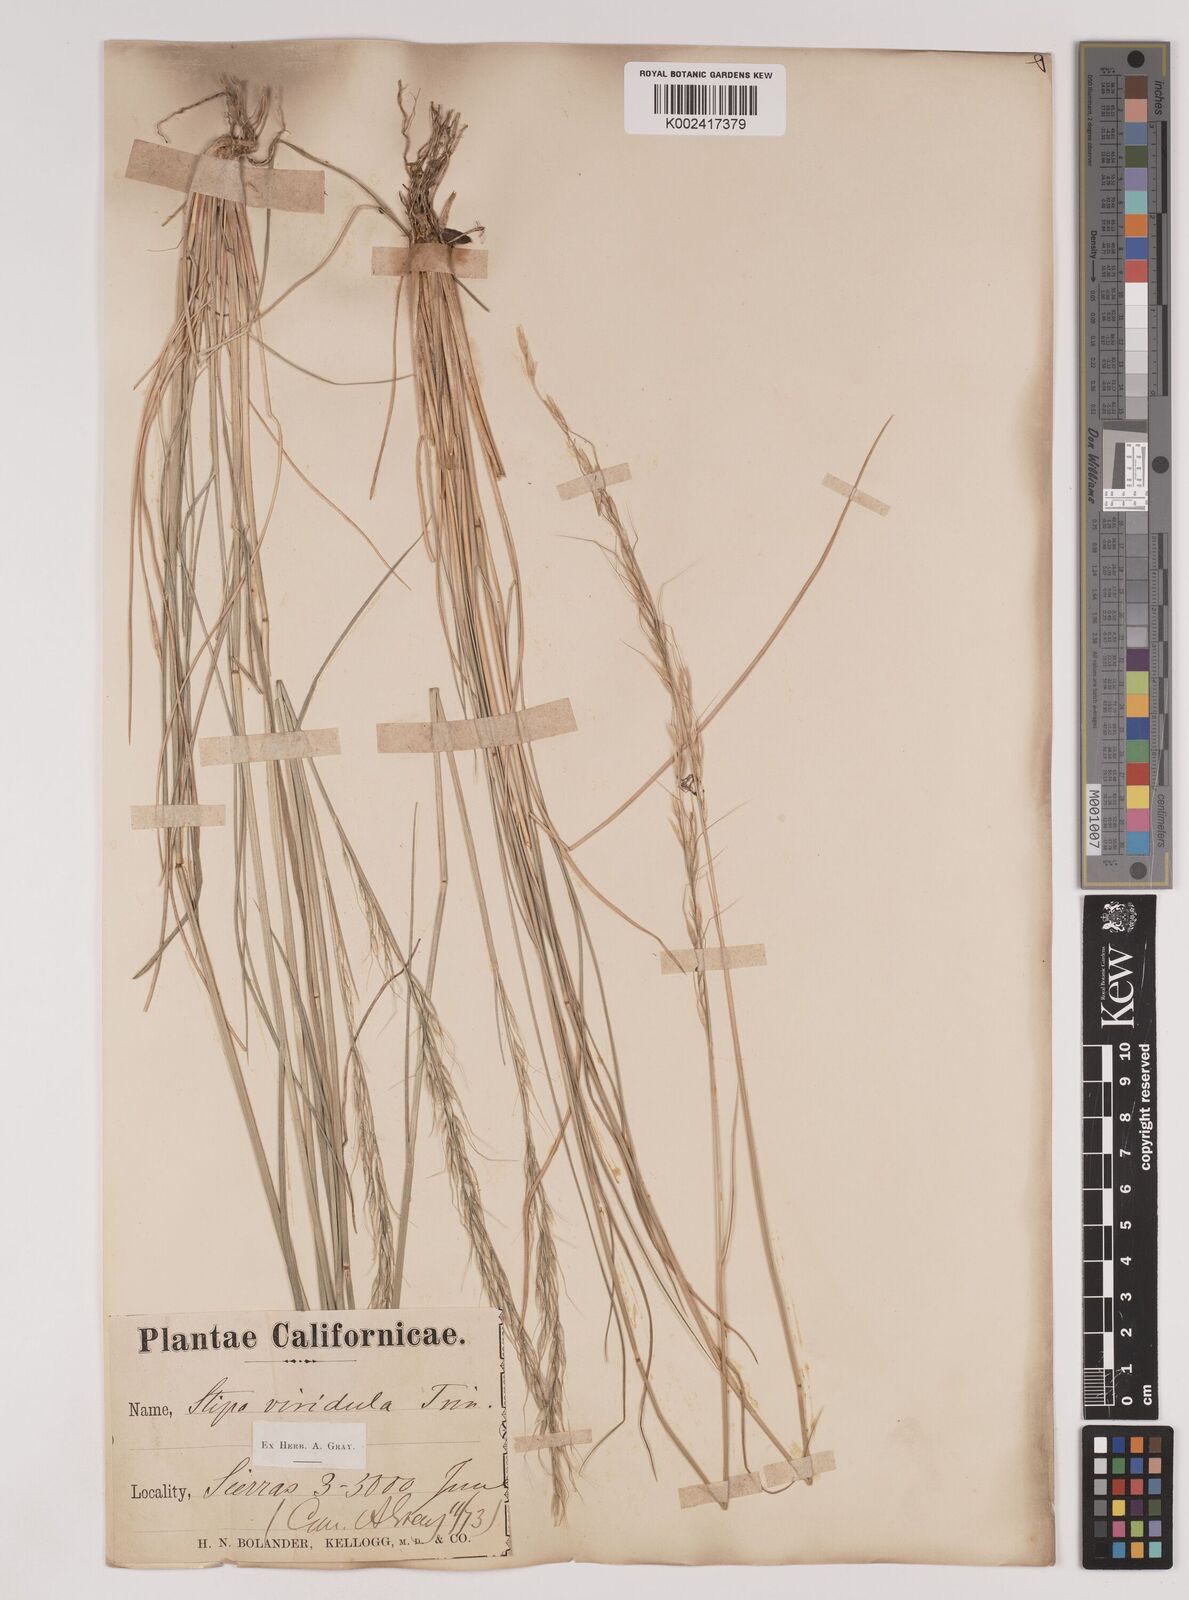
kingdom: Plantae
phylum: Tracheophyta
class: Liliopsida
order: Poales
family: Poaceae
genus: Nassella
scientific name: Nassella viridula
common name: Green needlegrass
